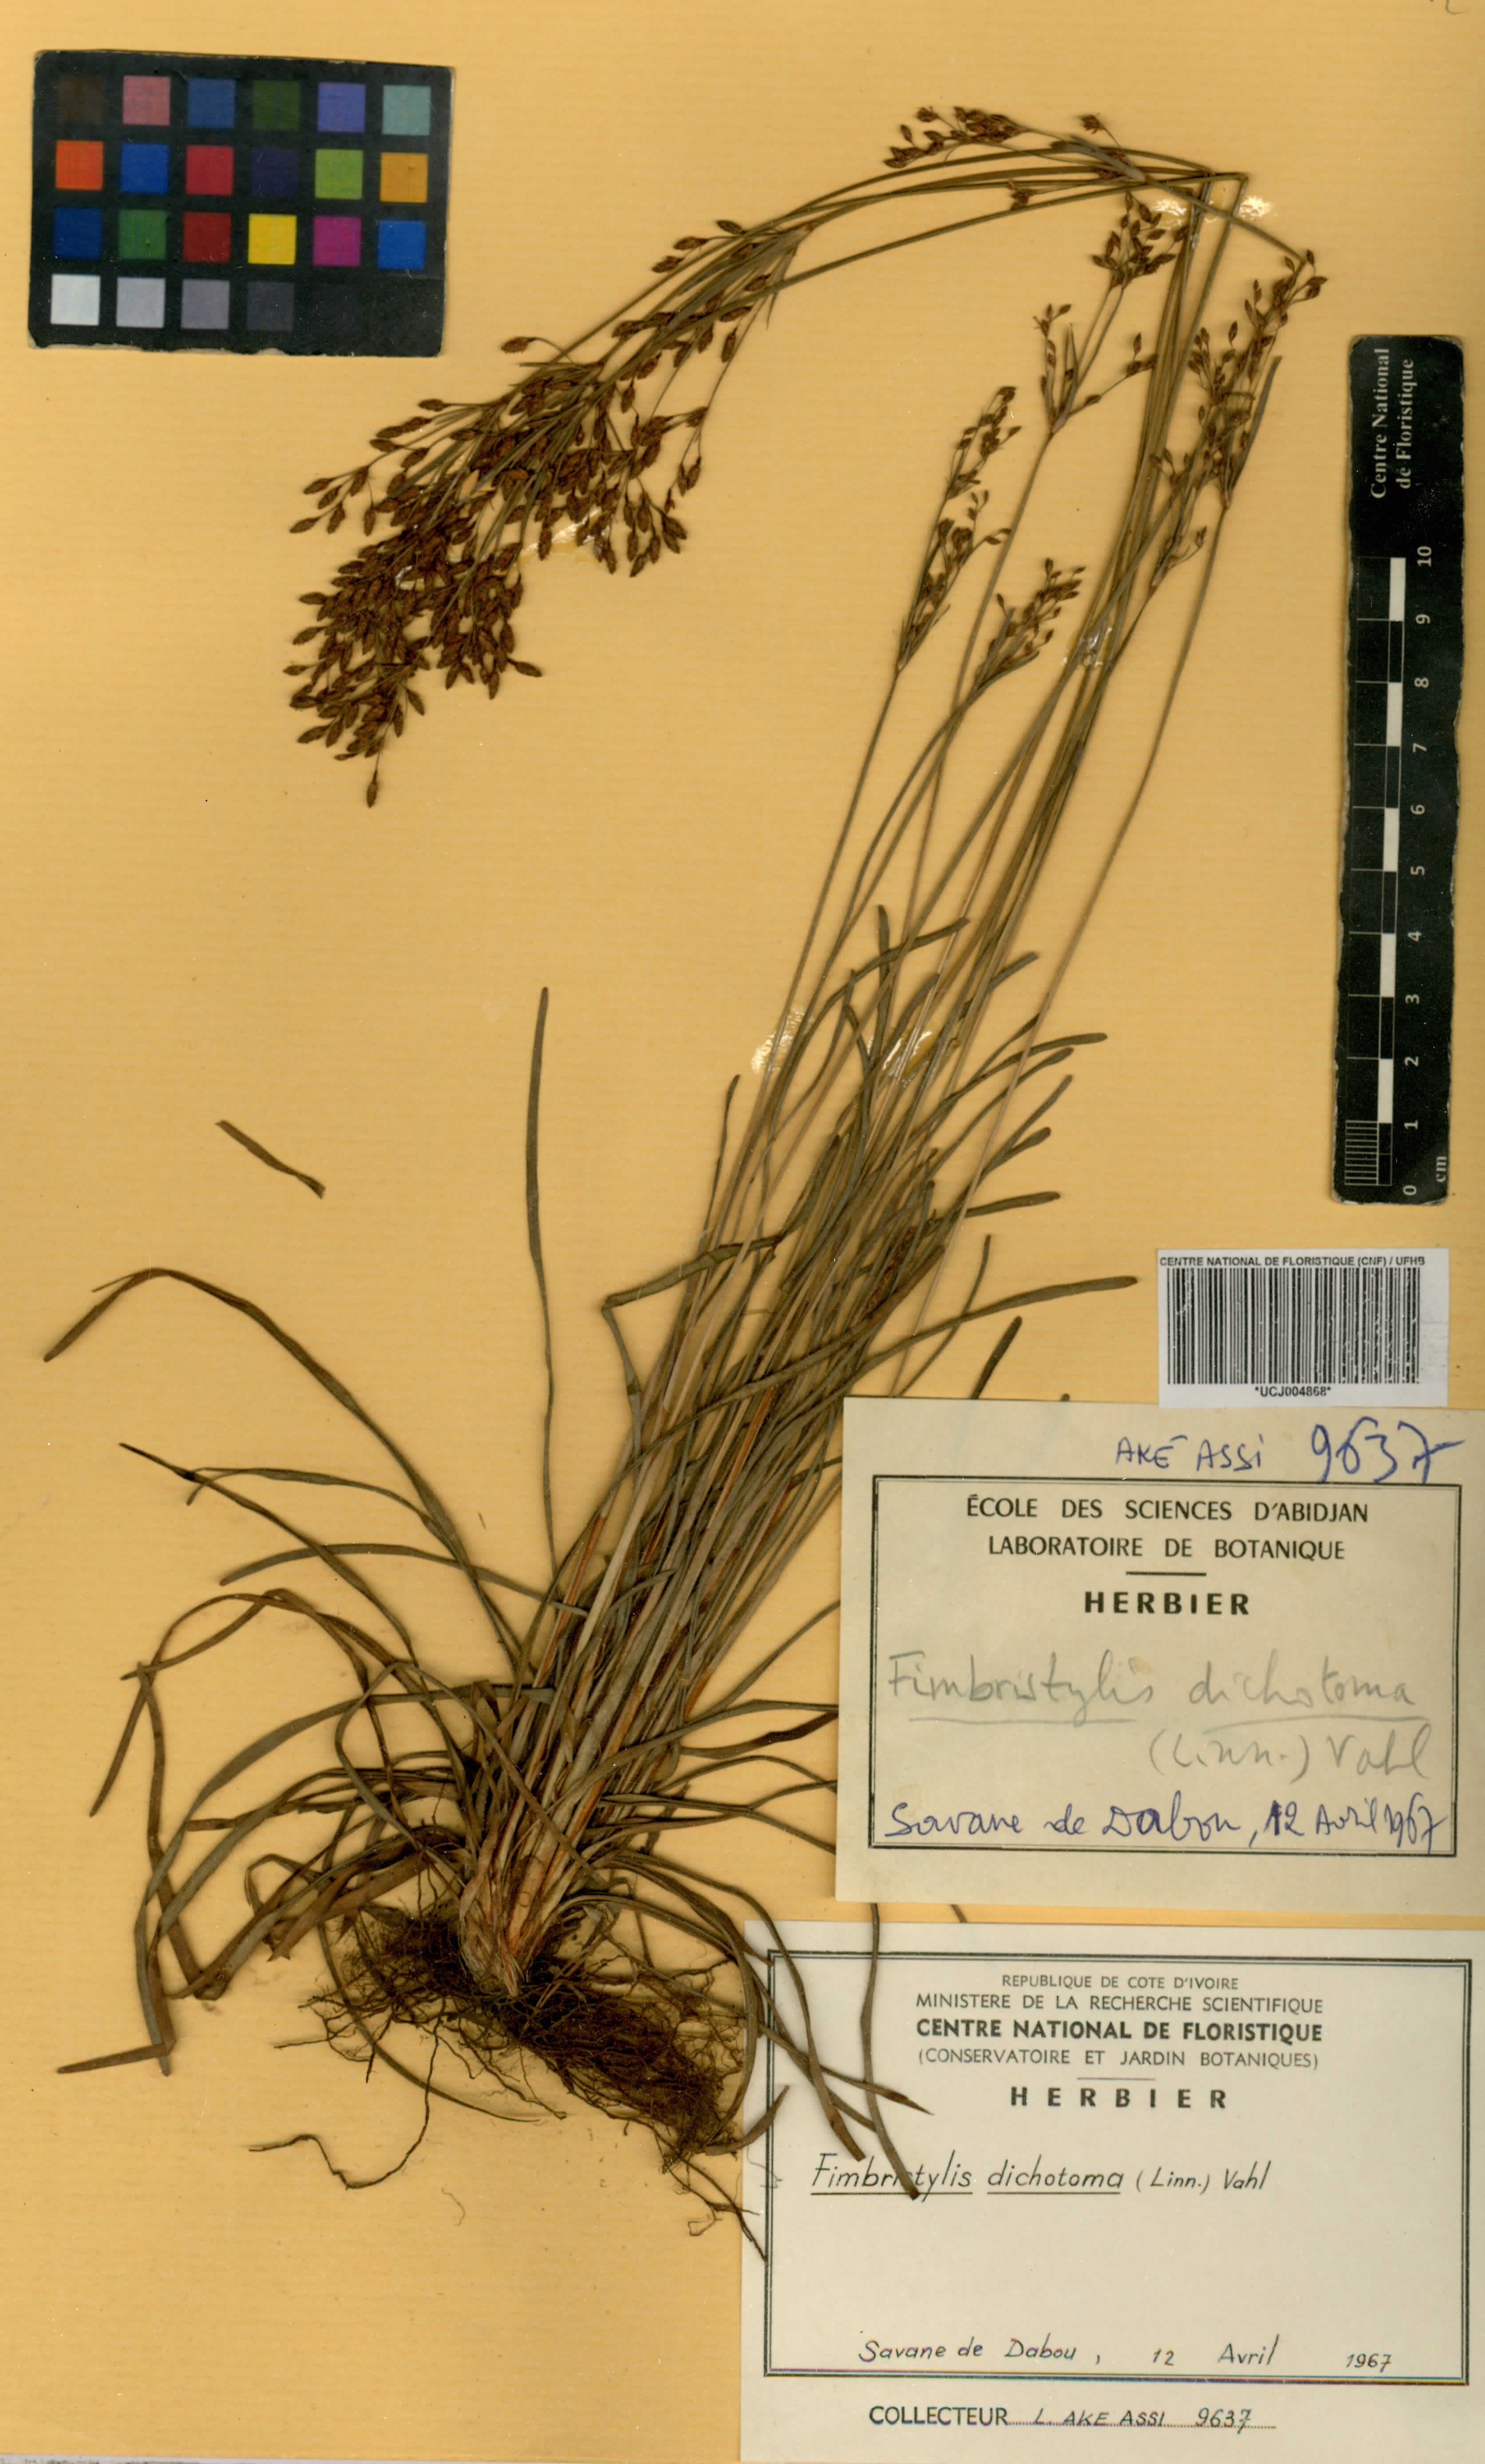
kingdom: Plantae
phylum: Tracheophyta
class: Liliopsida
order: Poales
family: Cyperaceae
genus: Fimbristylis
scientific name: Fimbristylis dichotoma
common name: Forked fimbry
